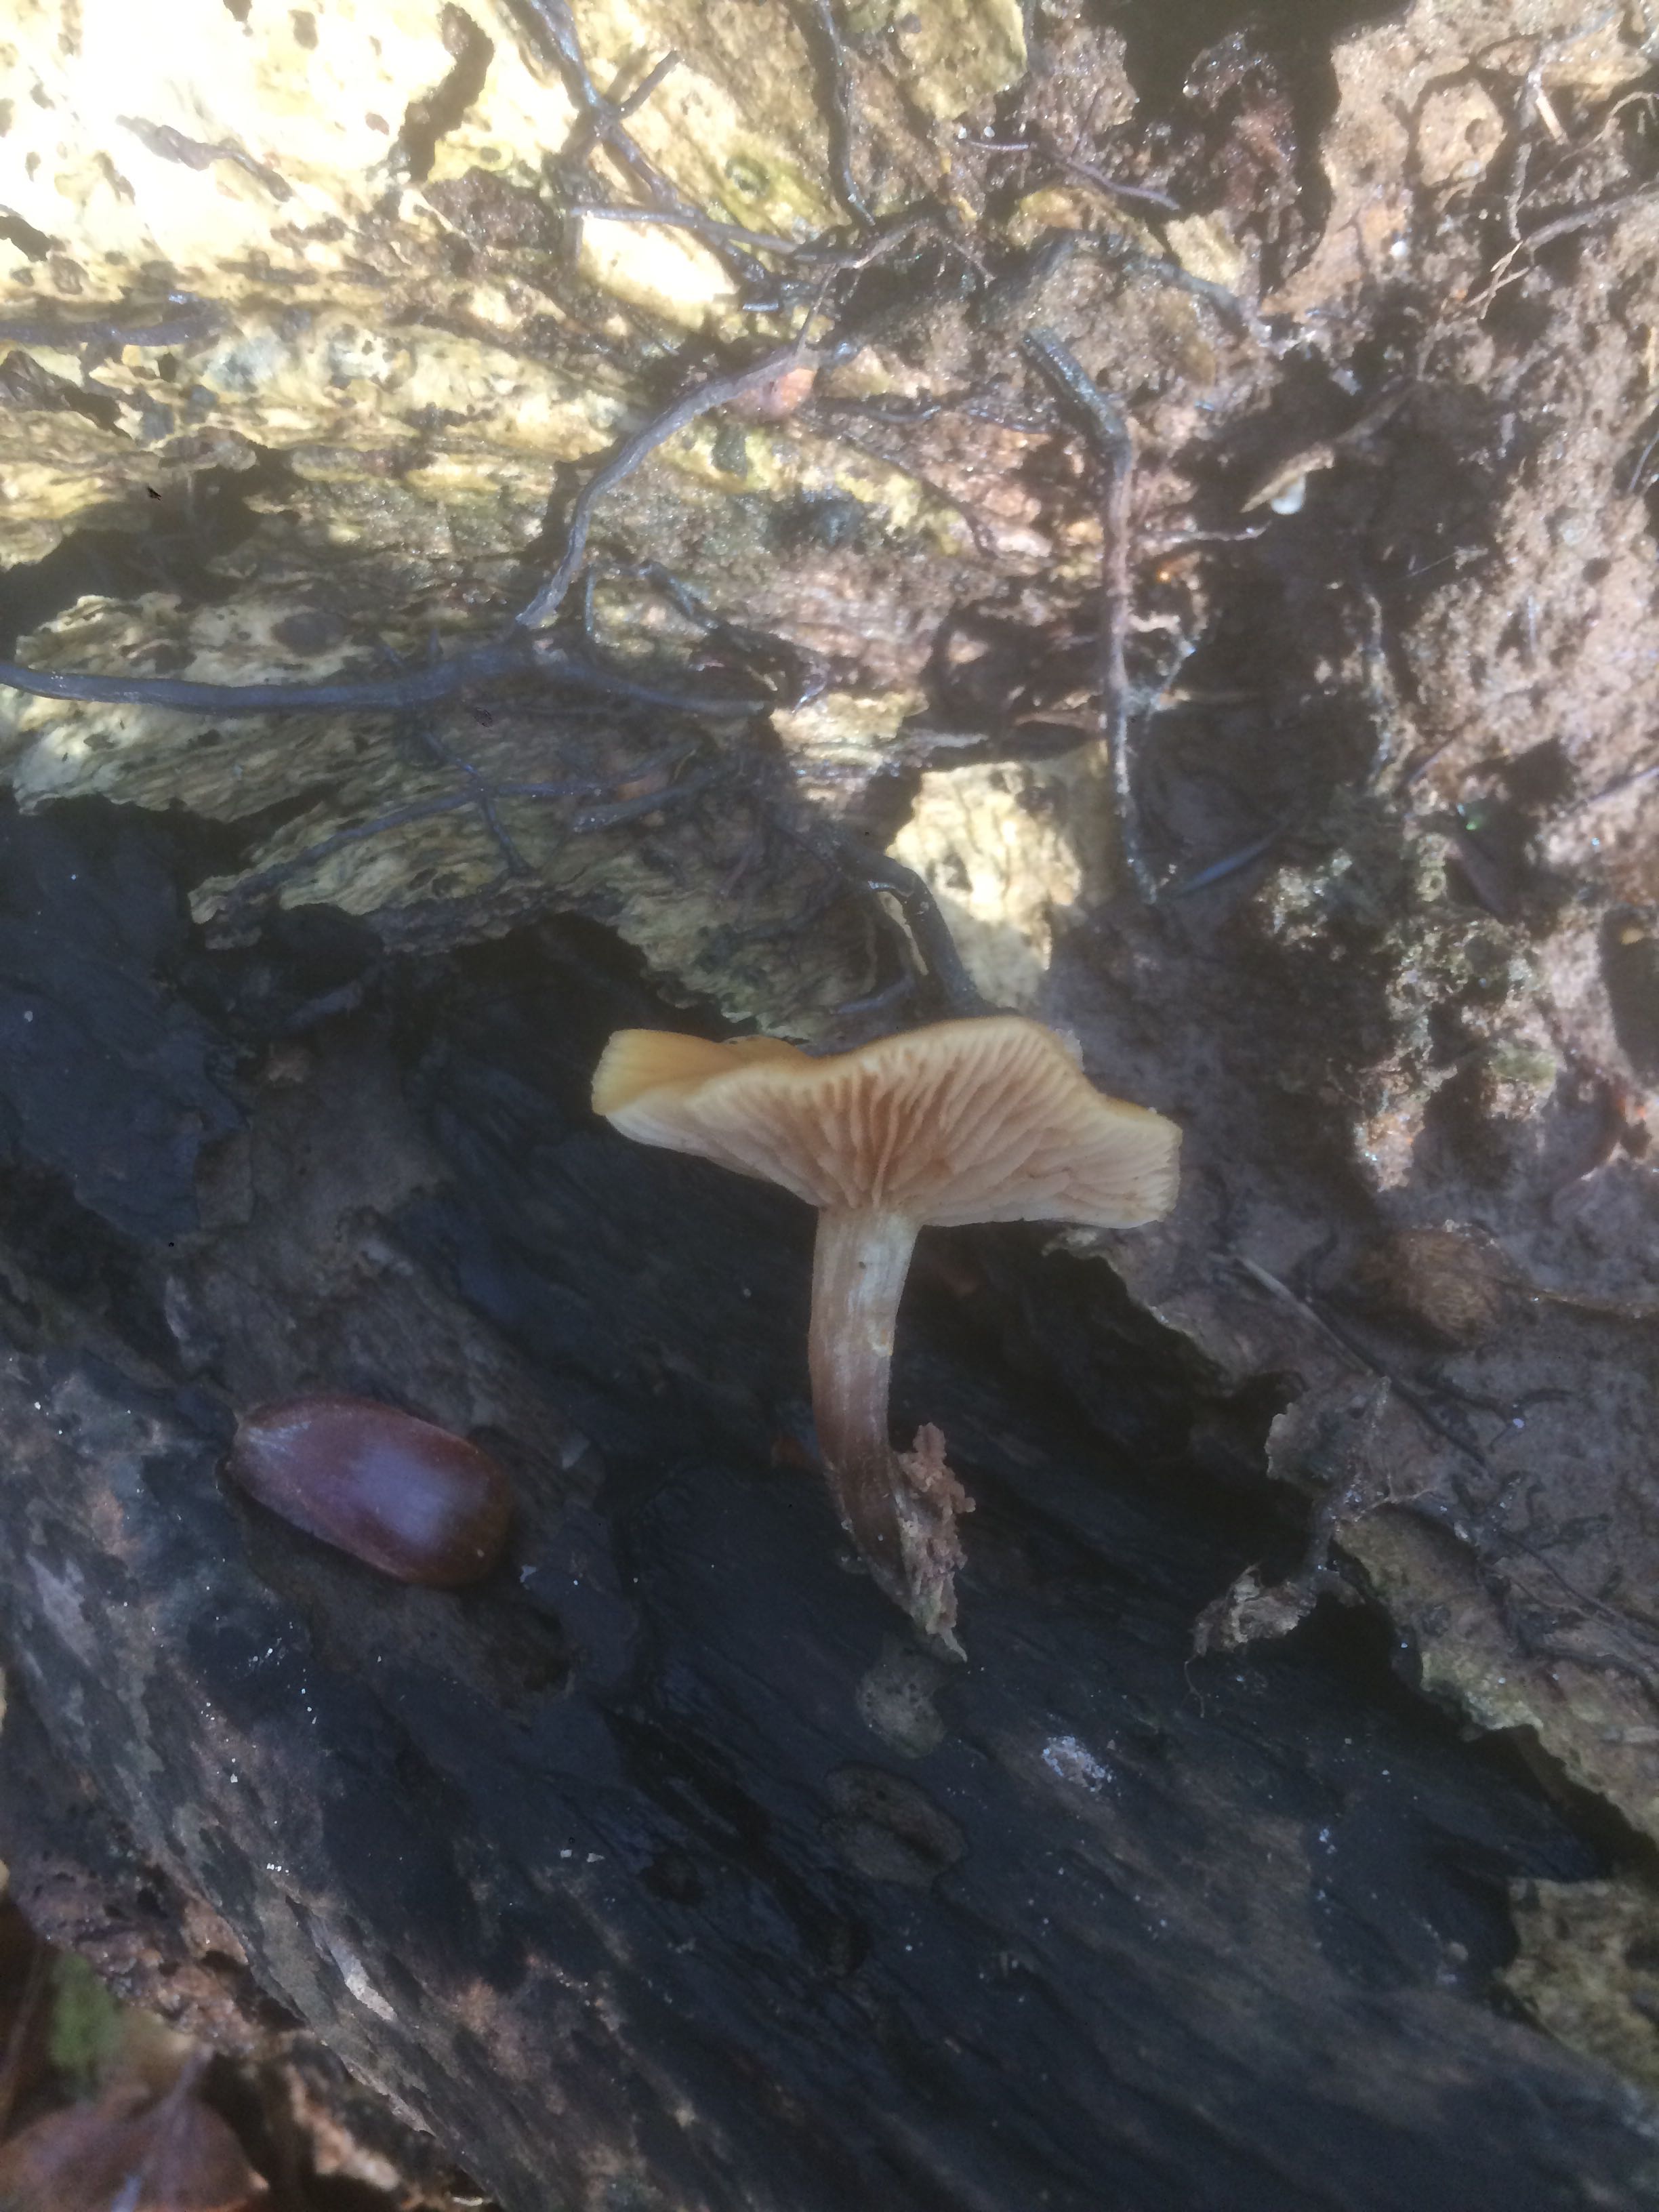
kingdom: Fungi
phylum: Basidiomycota
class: Agaricomycetes
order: Agaricales
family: Hymenogastraceae
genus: Galerina
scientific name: Galerina marginata
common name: randbæltet hjelmhat
